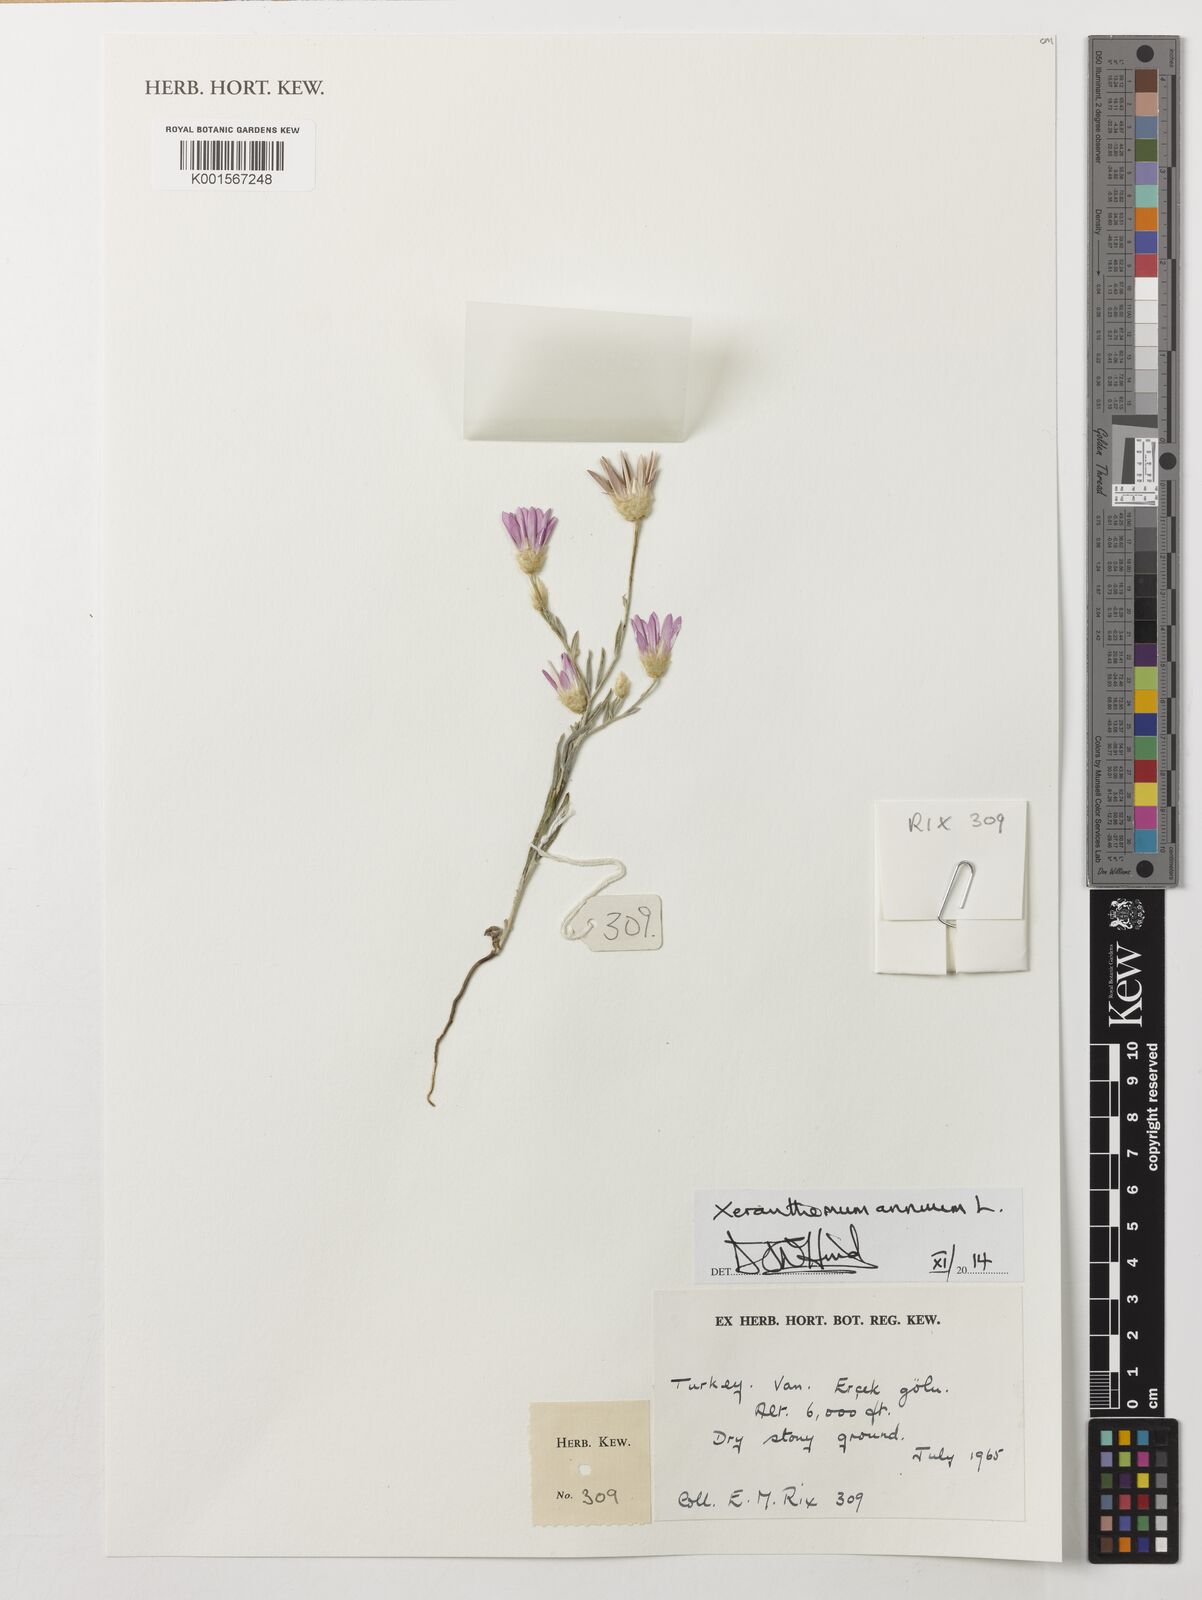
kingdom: Plantae
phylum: Tracheophyta
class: Magnoliopsida
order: Asterales
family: Asteraceae
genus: Xeranthemum
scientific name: Xeranthemum annuum
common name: Immortelle
